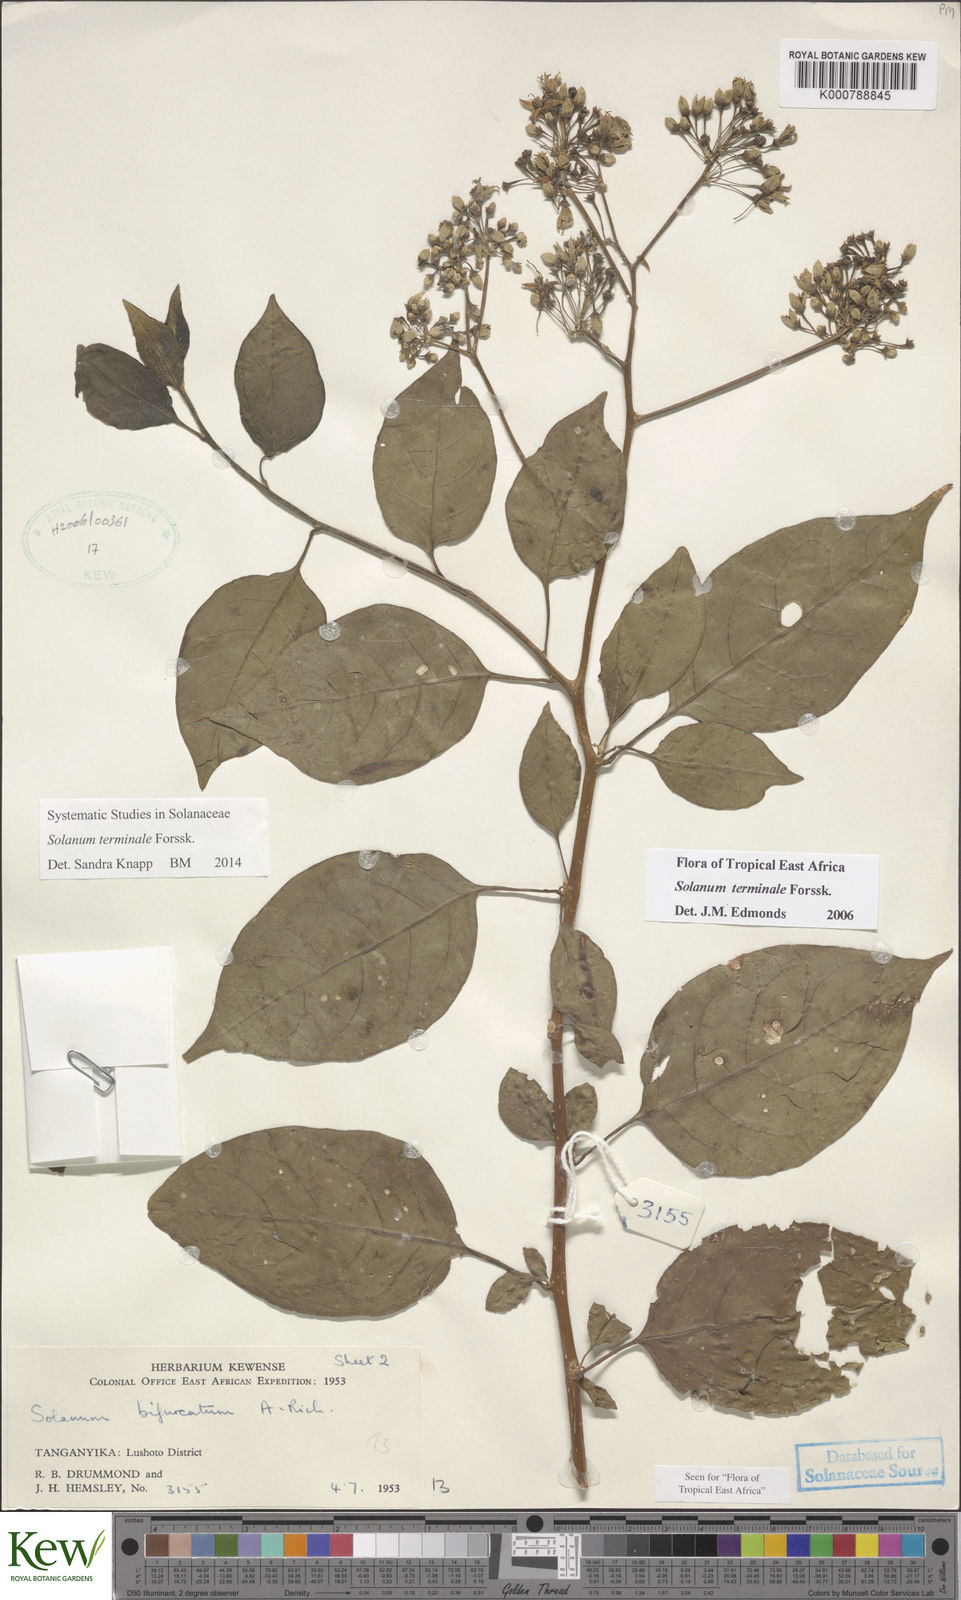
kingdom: Plantae
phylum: Tracheophyta
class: Magnoliopsida
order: Solanales
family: Solanaceae
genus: Solanum
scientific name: Solanum terminale
